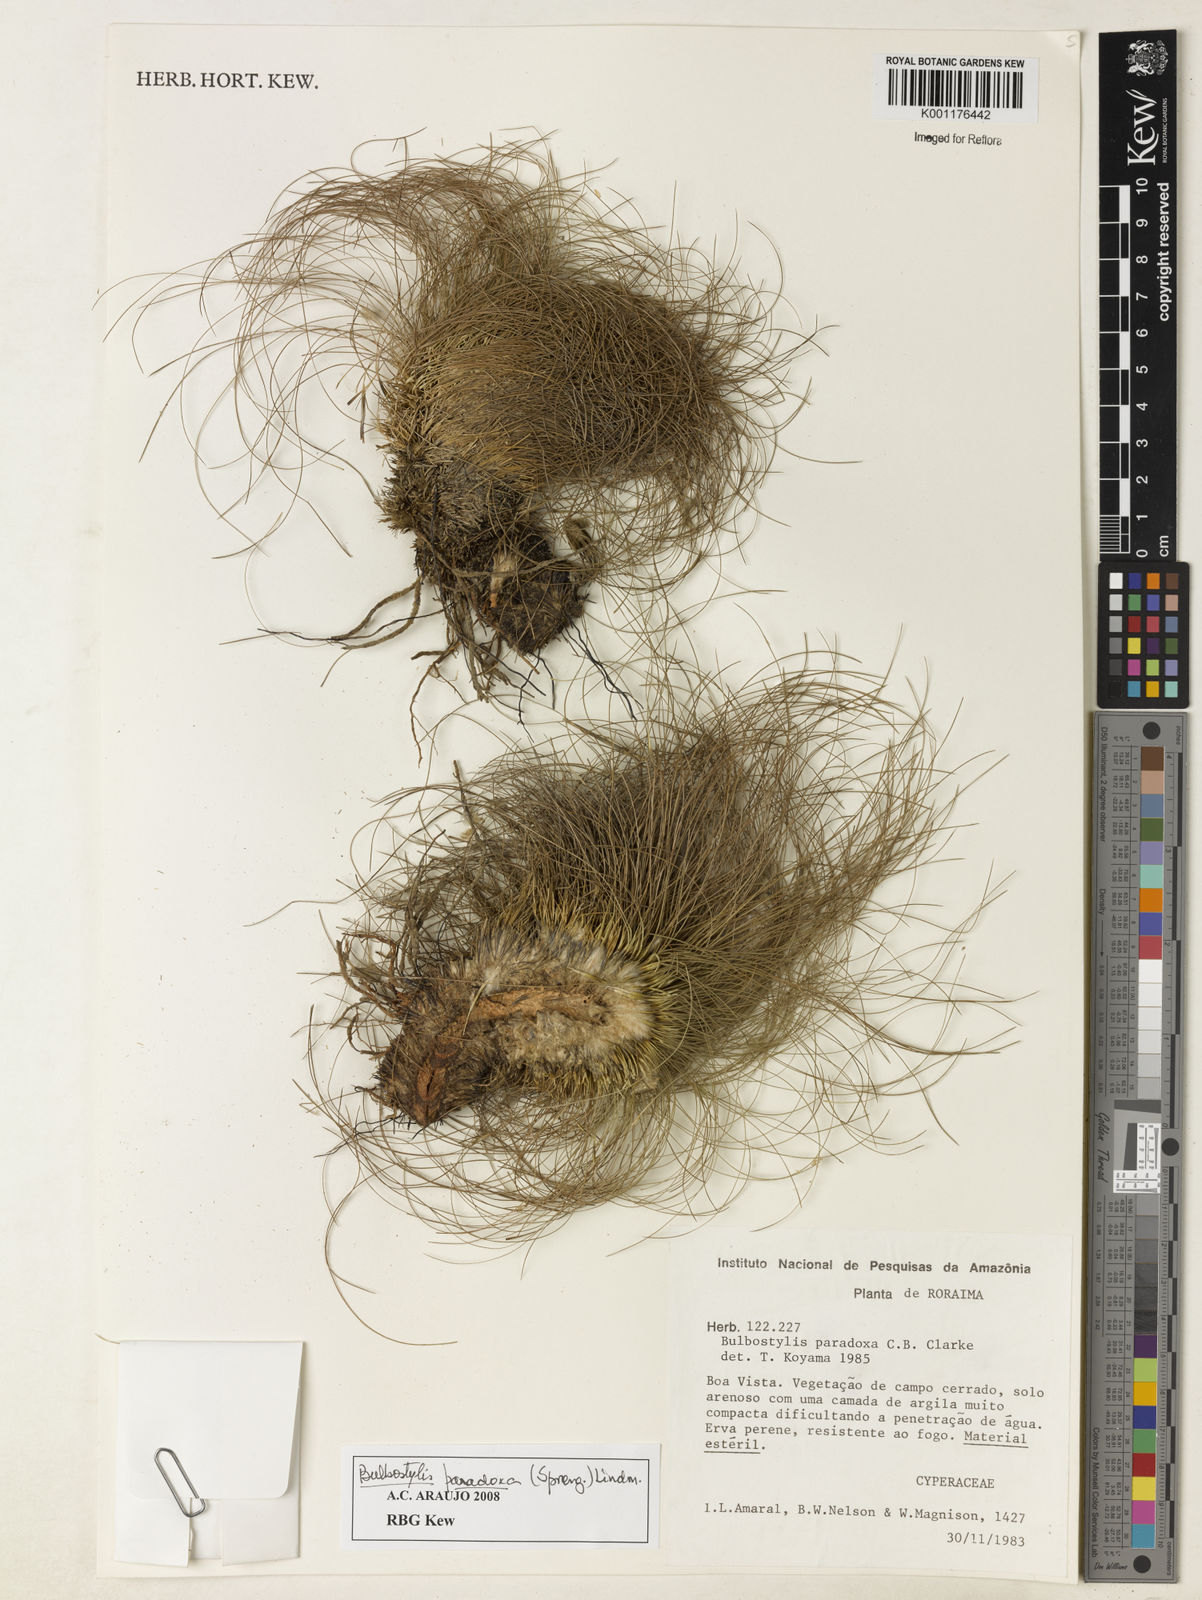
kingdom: Plantae
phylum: Tracheophyta
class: Liliopsida
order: Poales
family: Cyperaceae
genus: Bulbostylis
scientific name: Bulbostylis paradoxa
